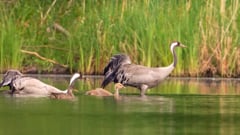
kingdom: Animalia
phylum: Chordata
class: Aves
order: Gruiformes
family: Gruidae
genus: Grus
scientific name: Grus grus
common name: Common crane
